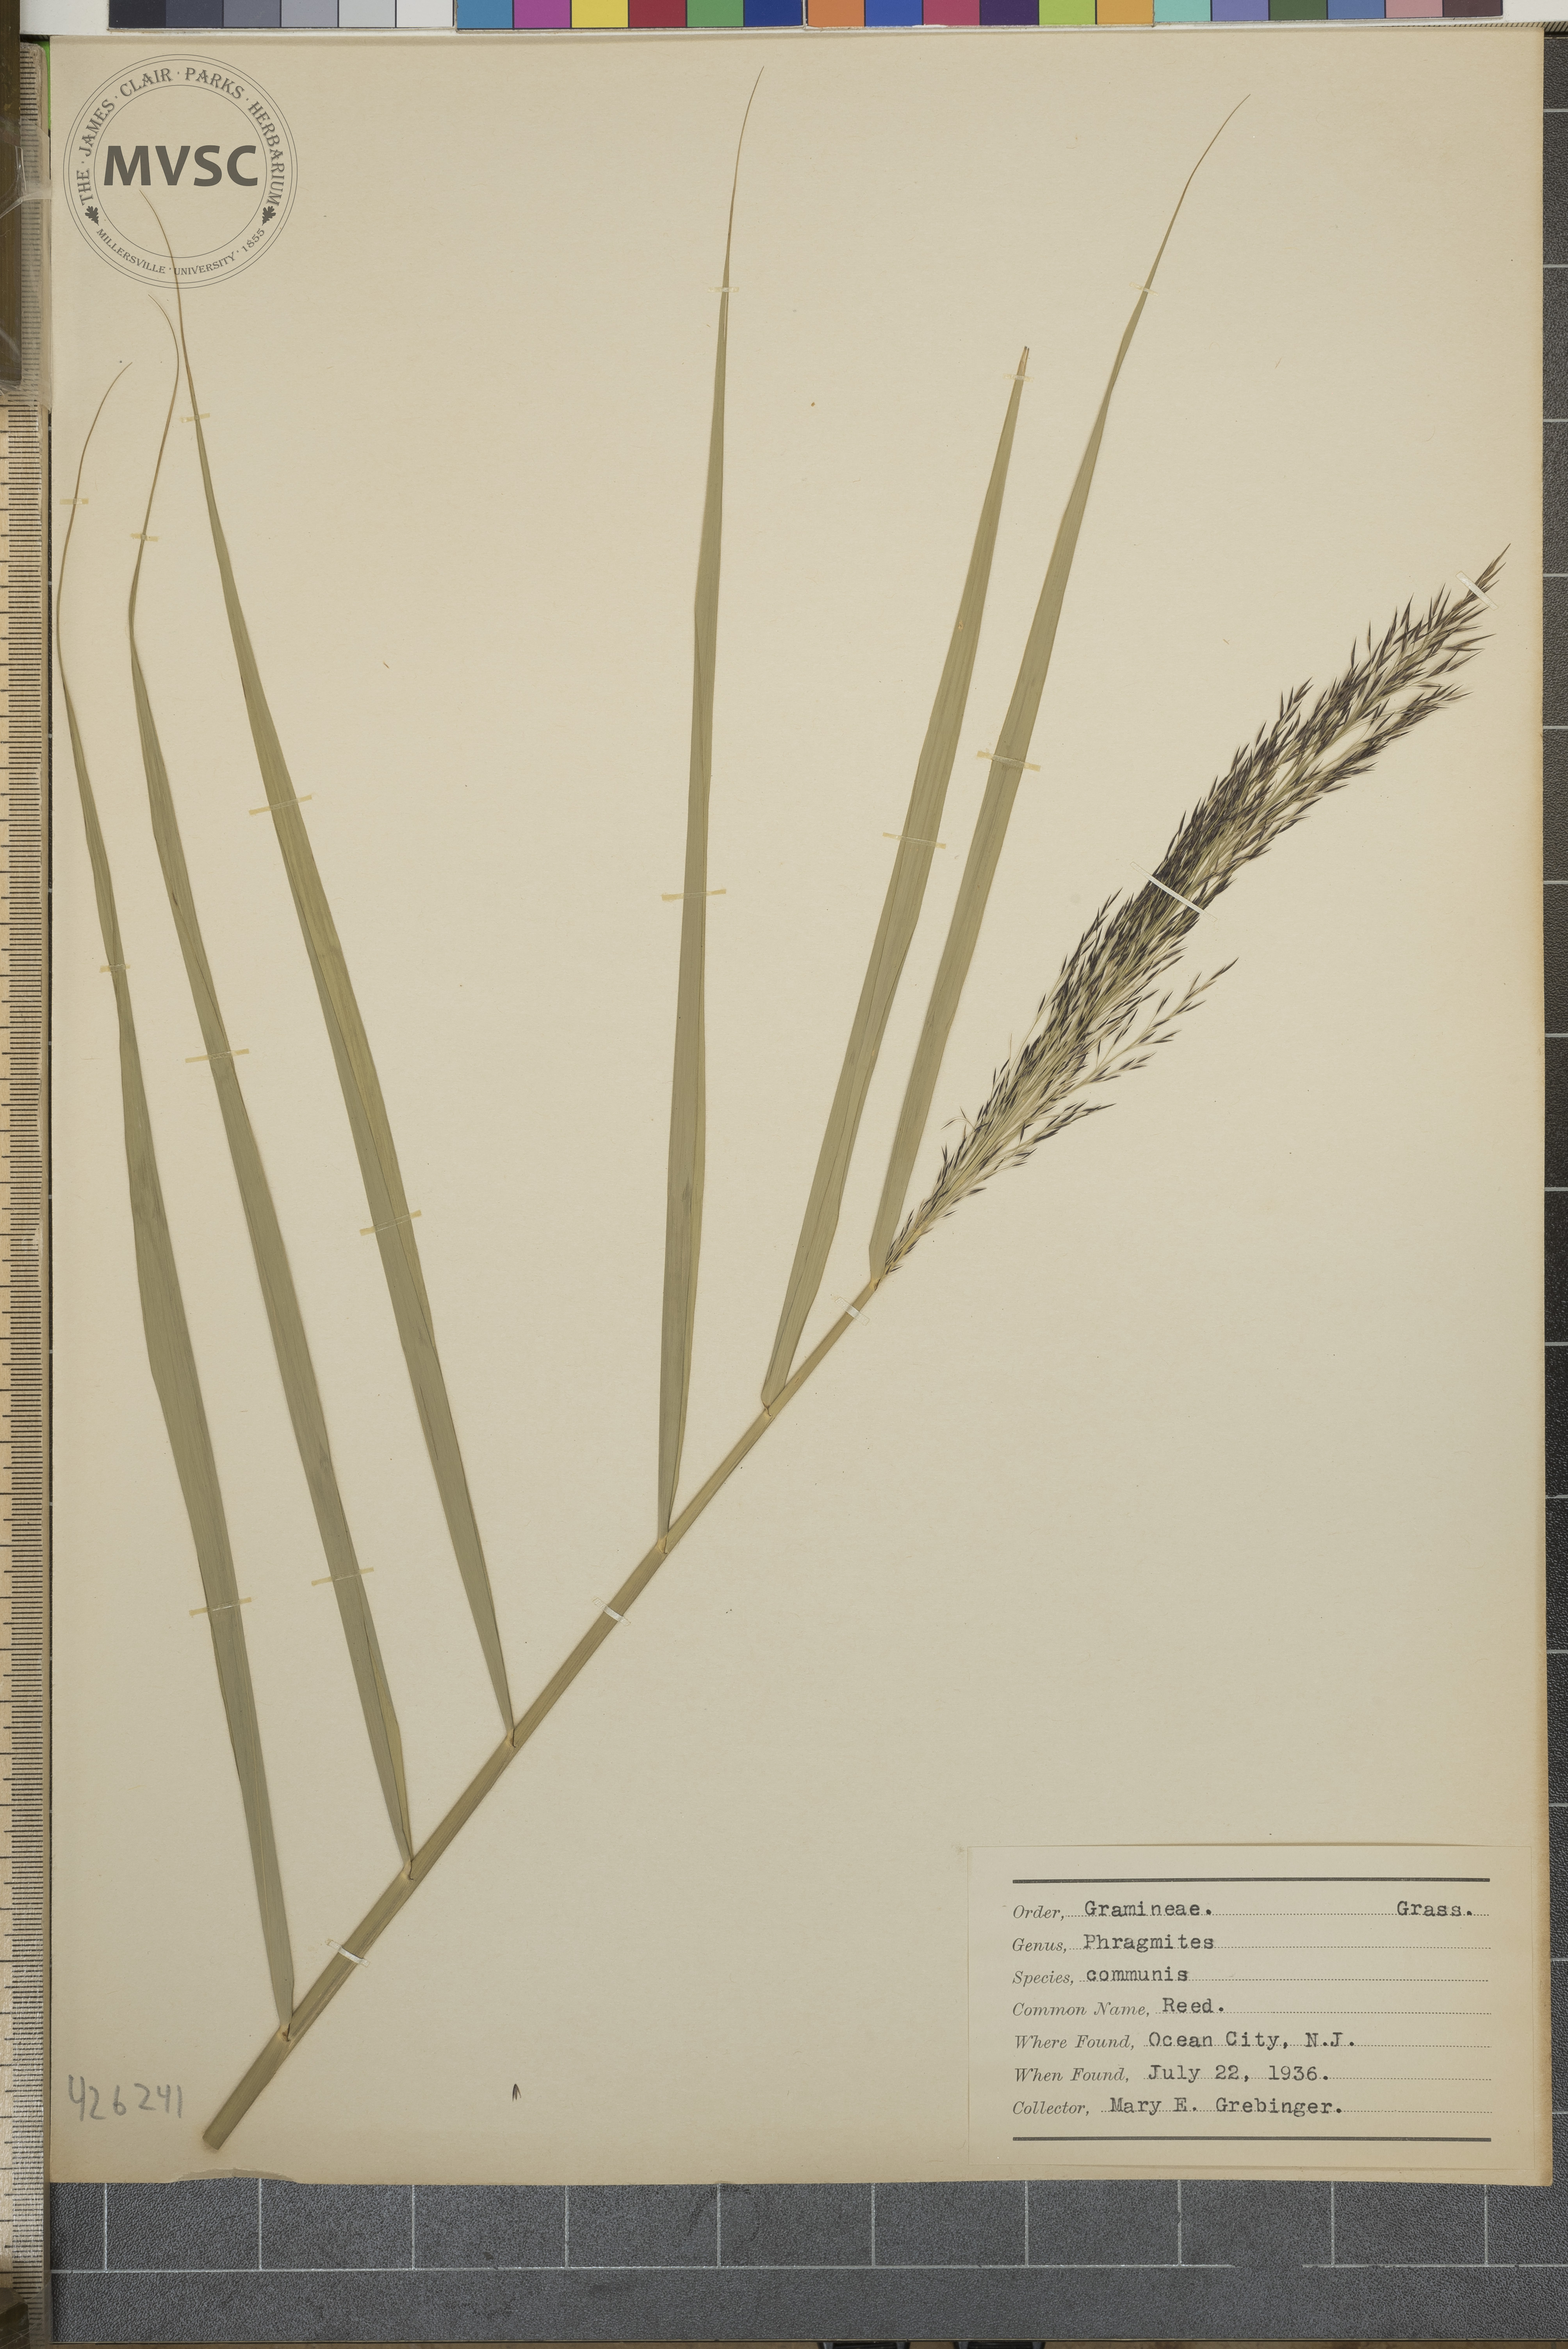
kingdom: Plantae
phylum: Tracheophyta
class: Liliopsida
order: Poales
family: Poaceae
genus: Phragmites
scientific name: Phragmites australis
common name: Reed
